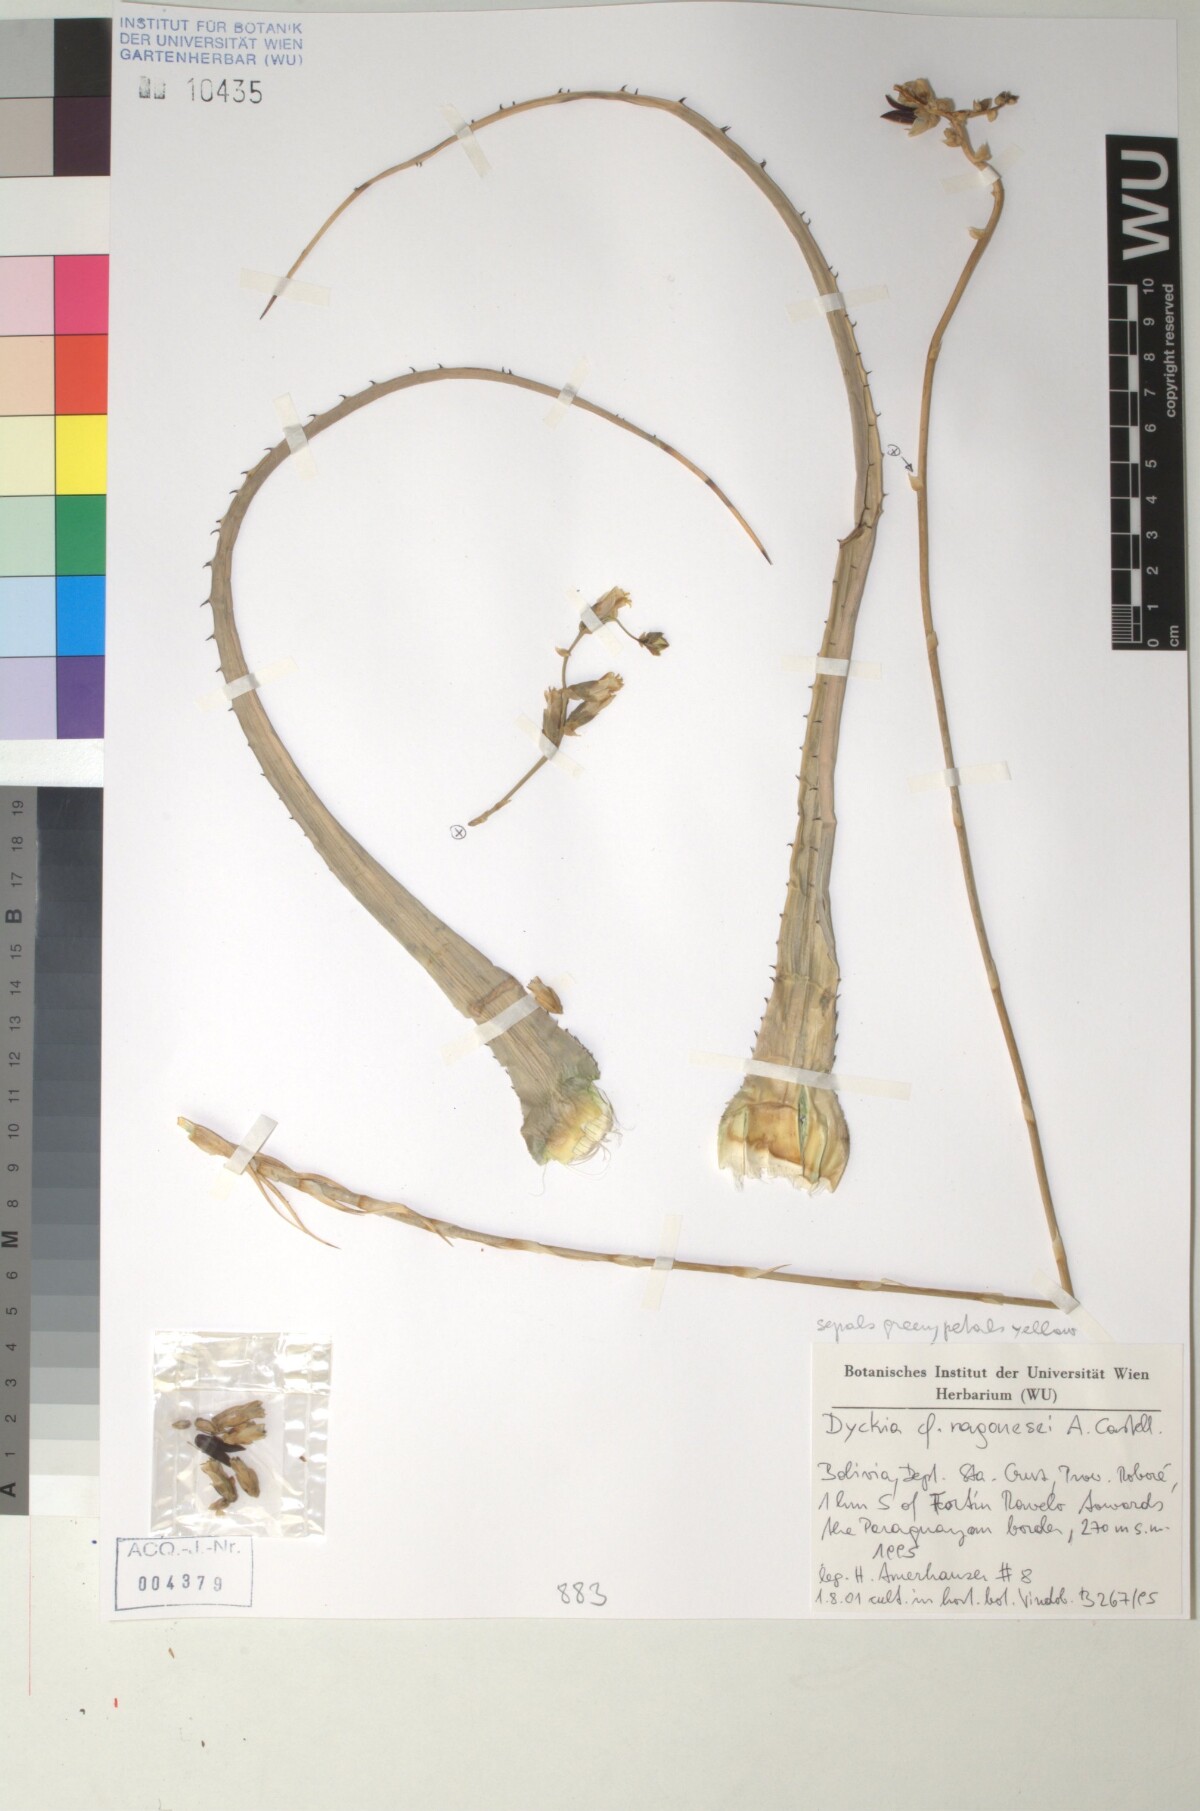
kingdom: Plantae
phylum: Tracheophyta
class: Liliopsida
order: Poales
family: Bromeliaceae
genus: Dyckia
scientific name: Dyckia ragonesei
